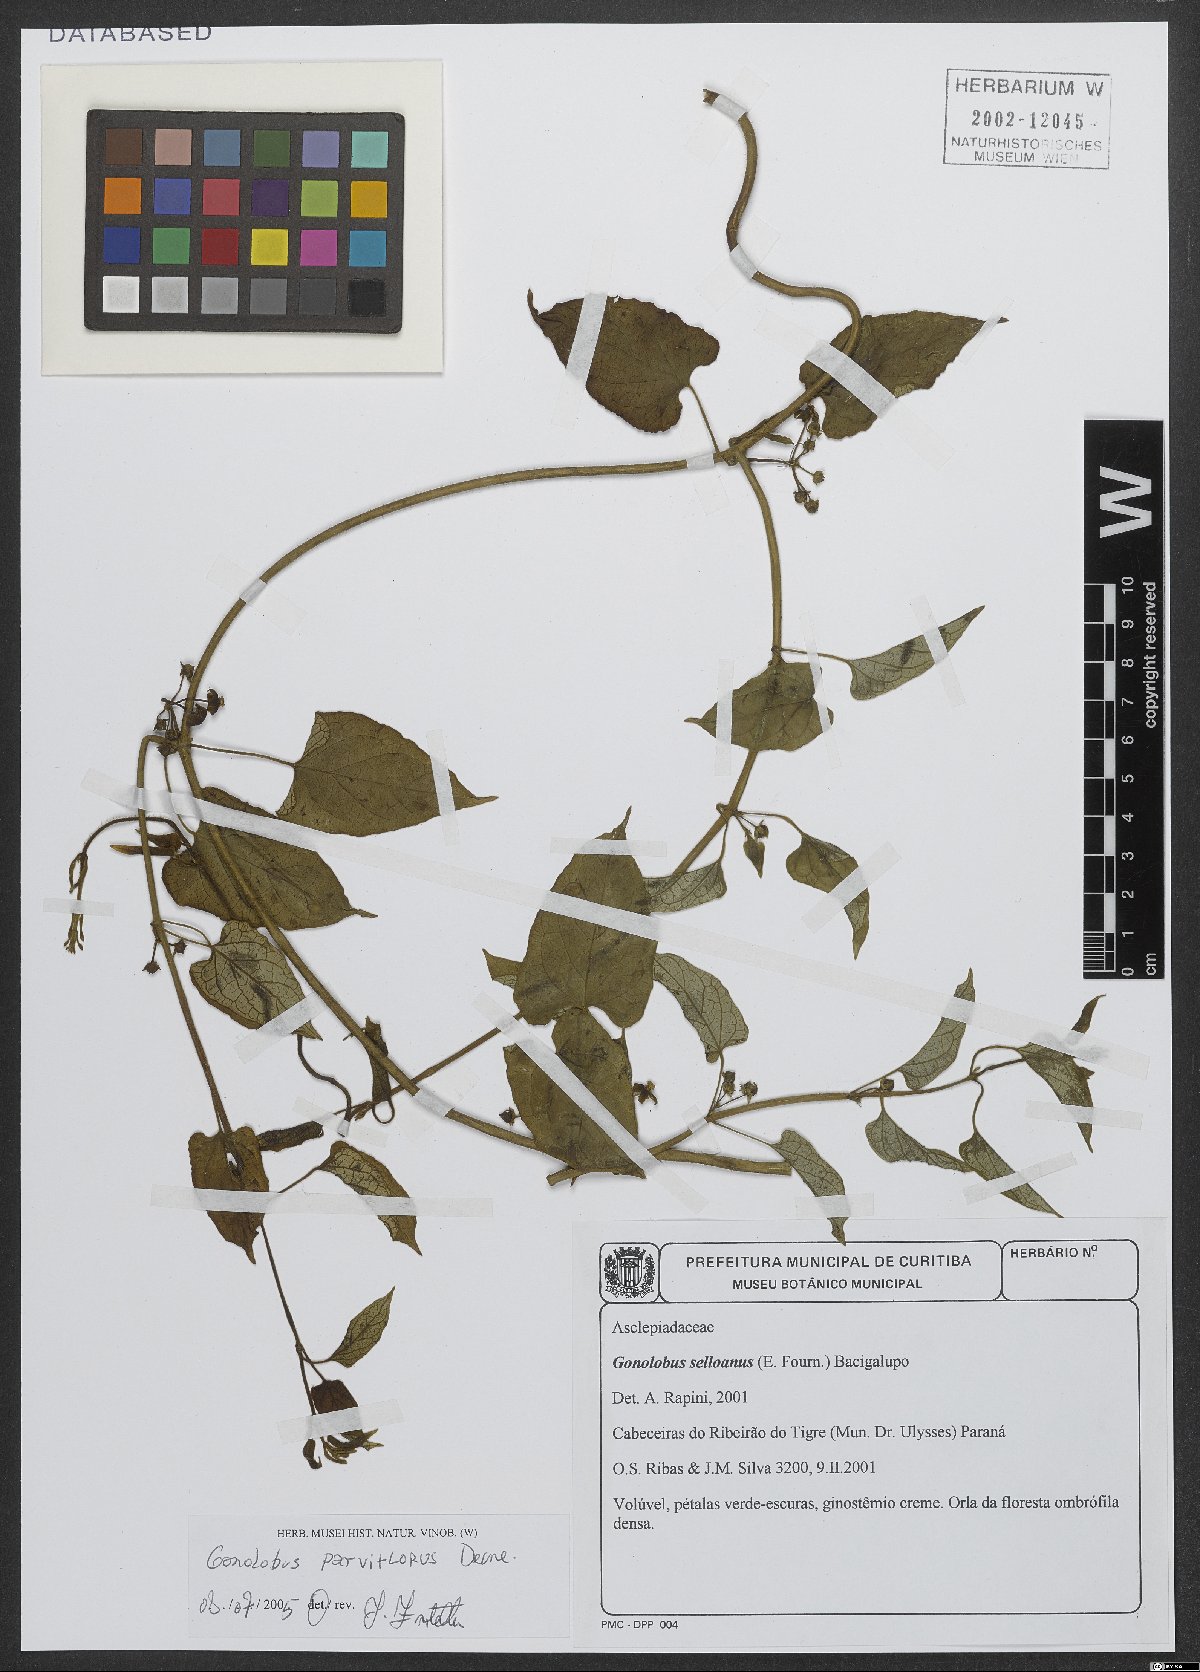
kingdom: Plantae
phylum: Tracheophyta
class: Magnoliopsida
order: Gentianales
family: Apocynaceae
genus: Gonolobus
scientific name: Gonolobus parviflorus
